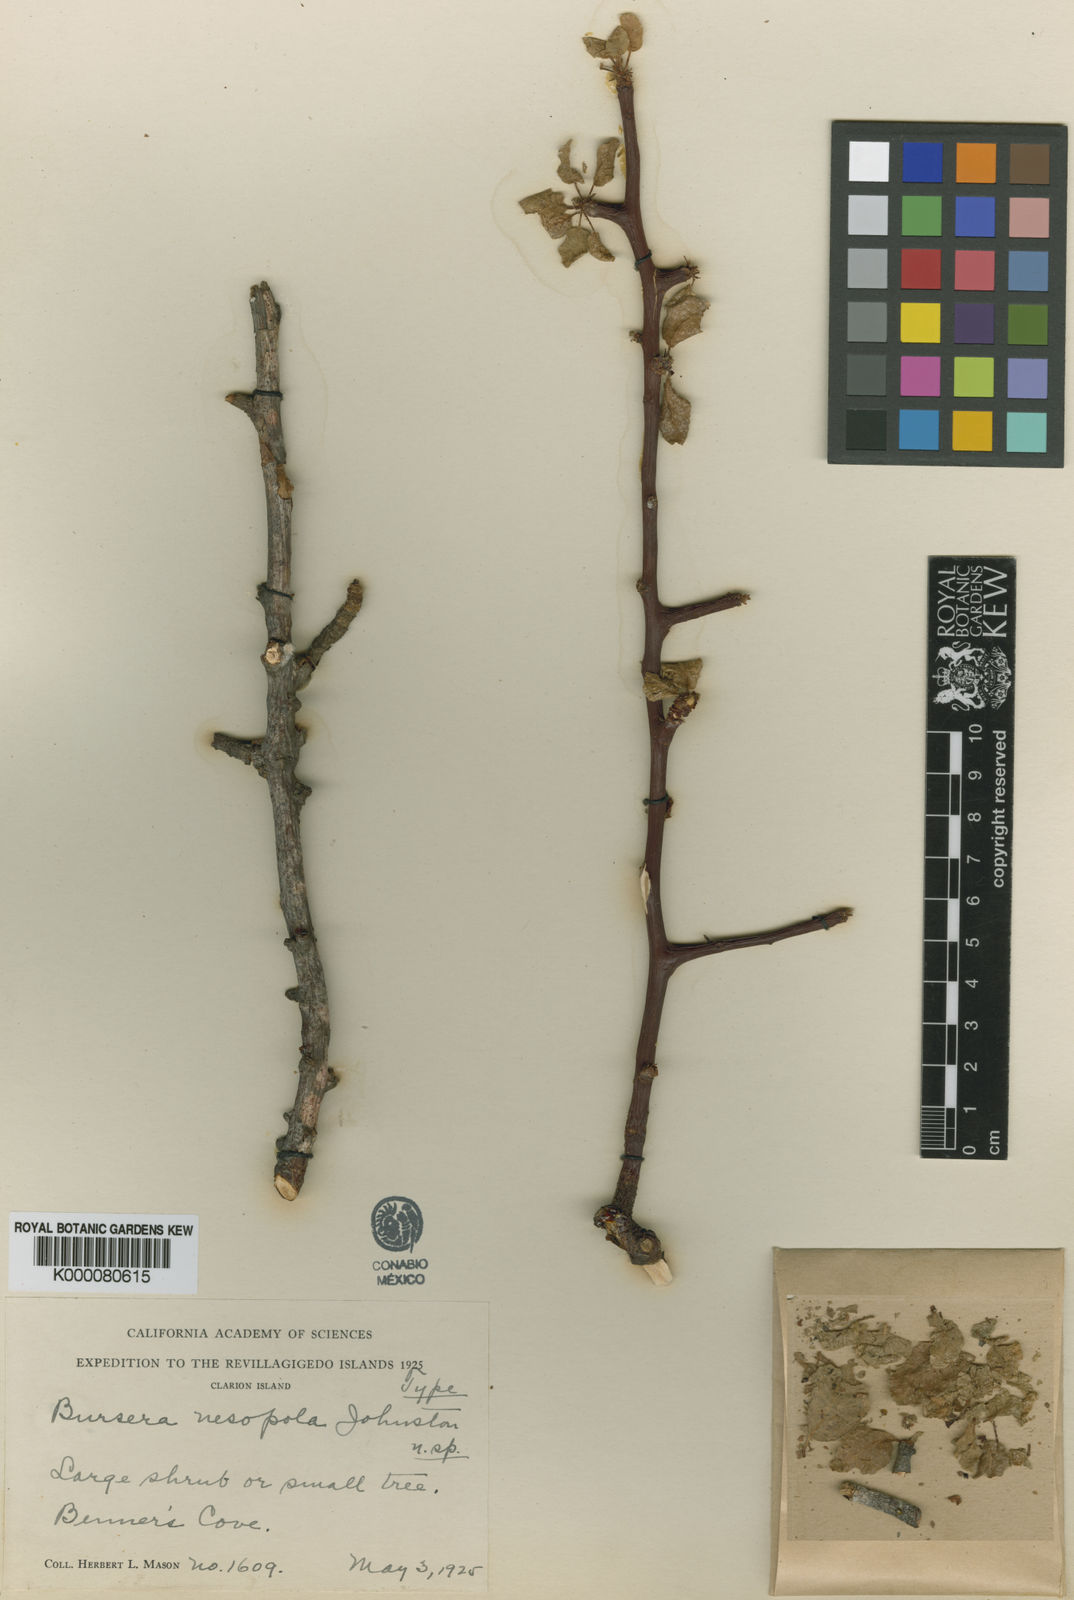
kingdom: Plantae
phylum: Tracheophyta
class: Magnoliopsida
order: Sapindales
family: Burseraceae
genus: Bursera
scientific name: Bursera hindsiana
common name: Red elephant tree
